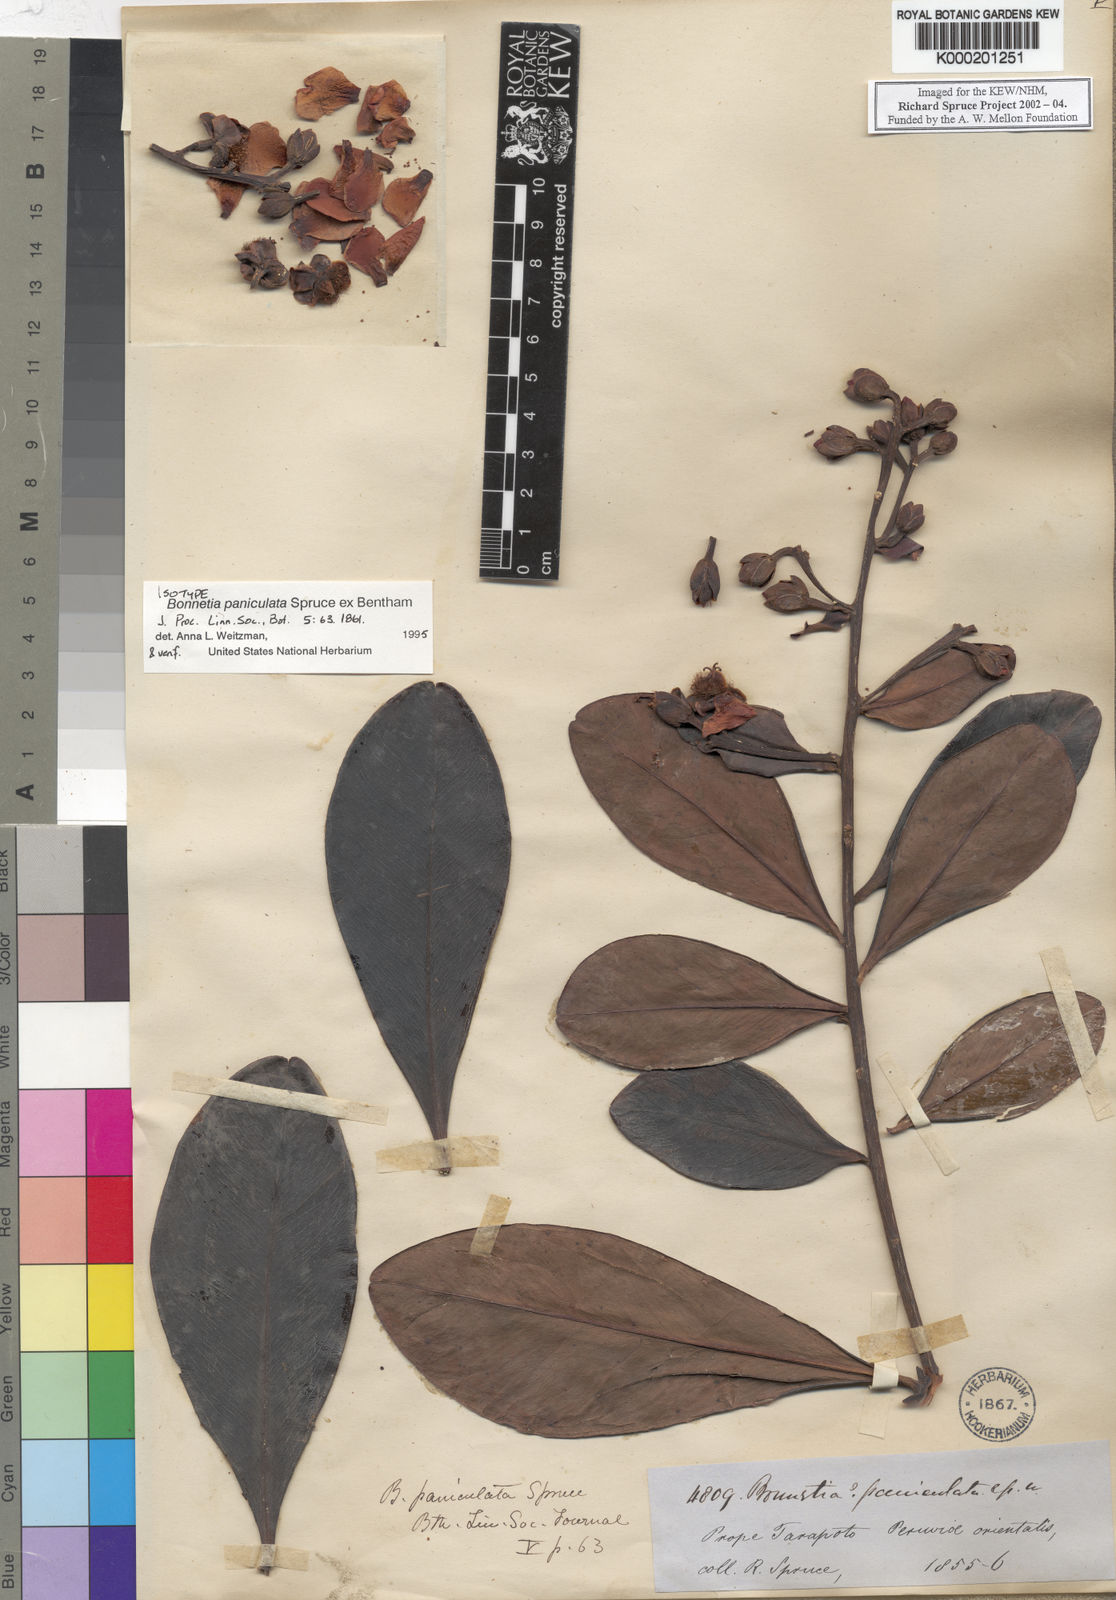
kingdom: Plantae
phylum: Tracheophyta
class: Magnoliopsida
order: Malpighiales
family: Bonnetiaceae
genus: Bonnetia
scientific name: Bonnetia paniculata
